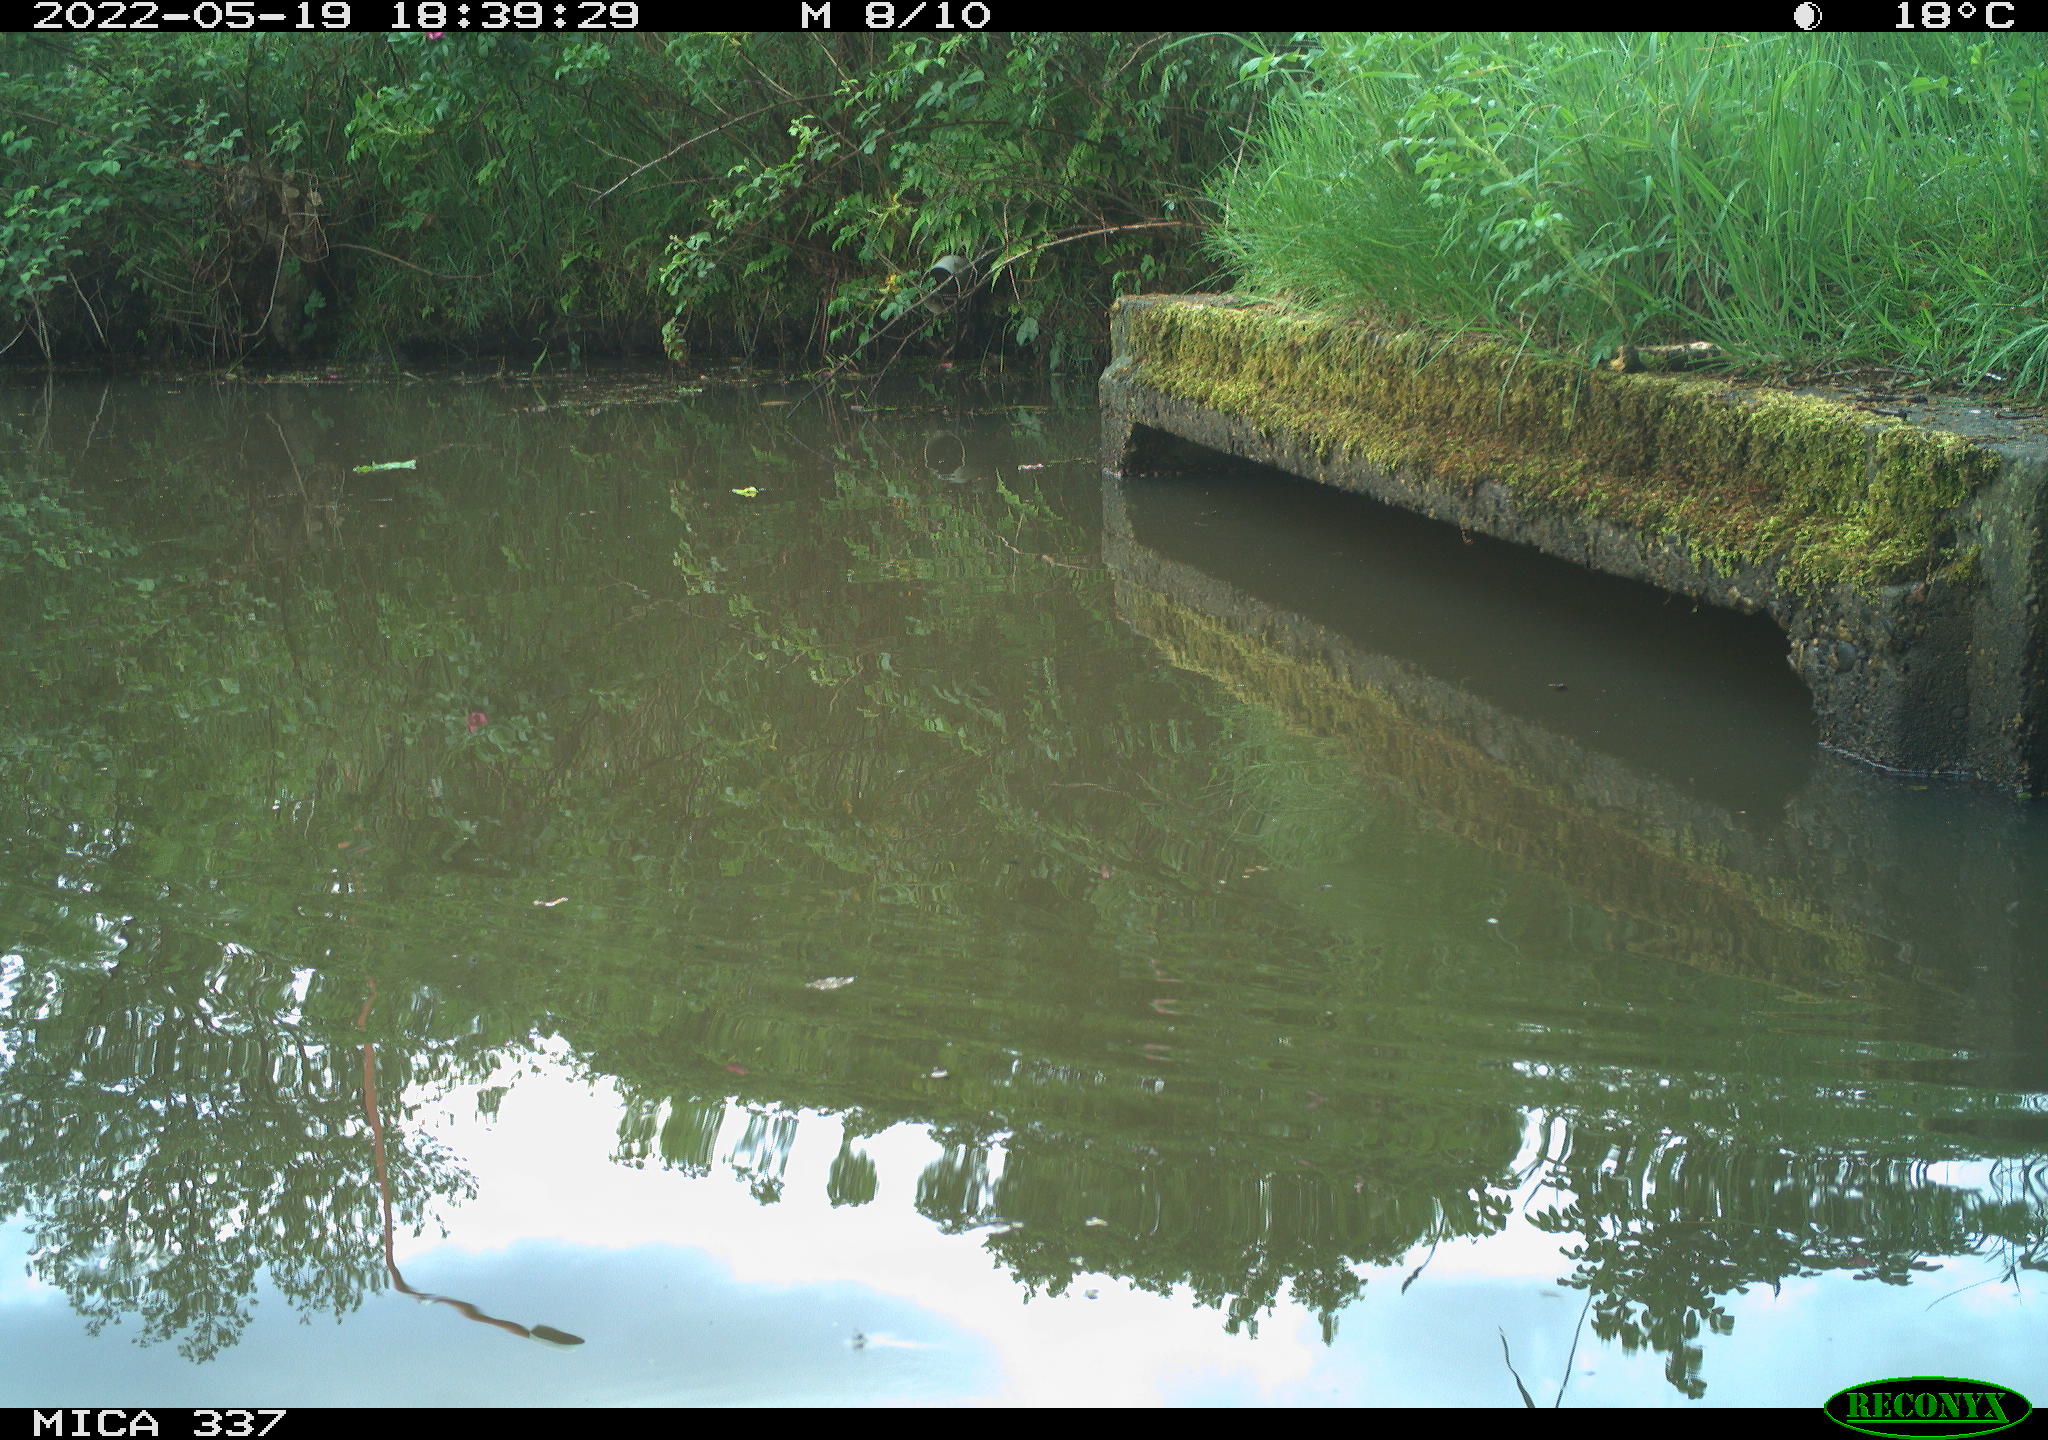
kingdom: Animalia
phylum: Chordata
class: Aves
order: Gruiformes
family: Rallidae
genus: Gallinula
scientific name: Gallinula chloropus
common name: Common moorhen
